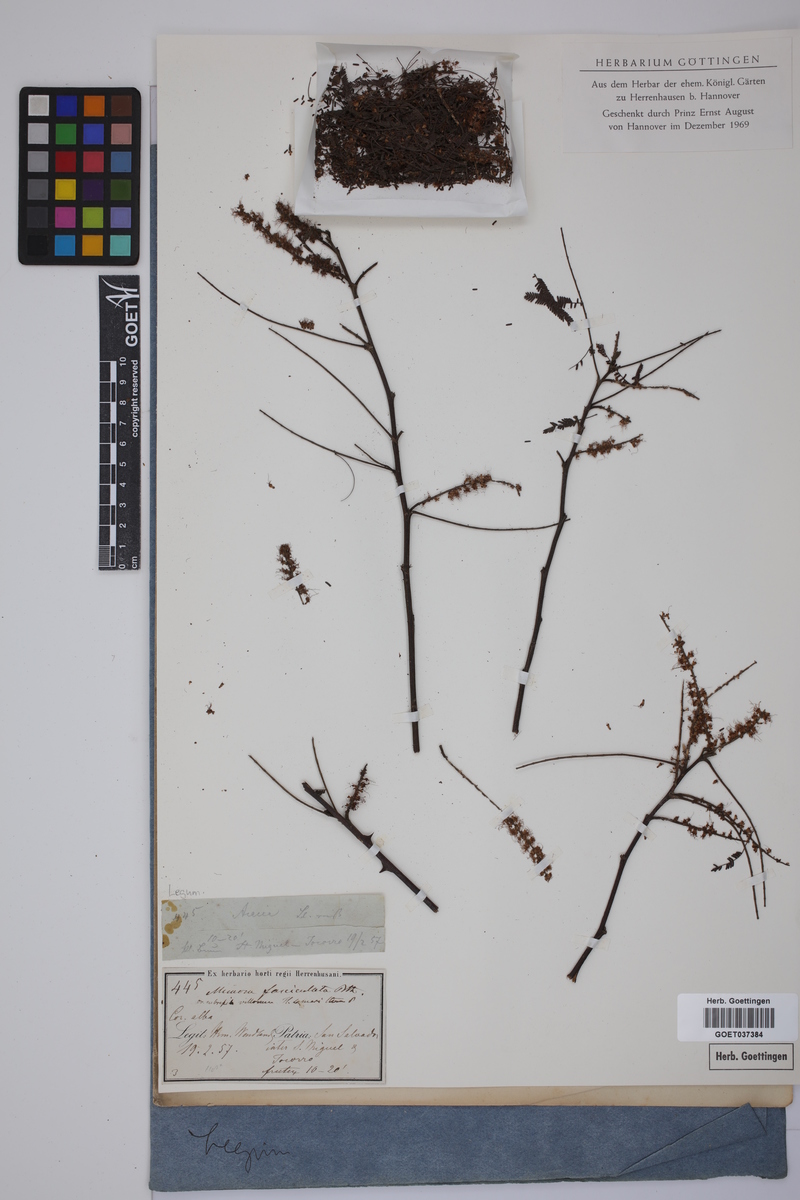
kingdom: Plantae
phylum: Tracheophyta
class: Magnoliopsida
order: Fabales
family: Fabaceae
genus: Mimosa
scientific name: Mimosa benthamii
